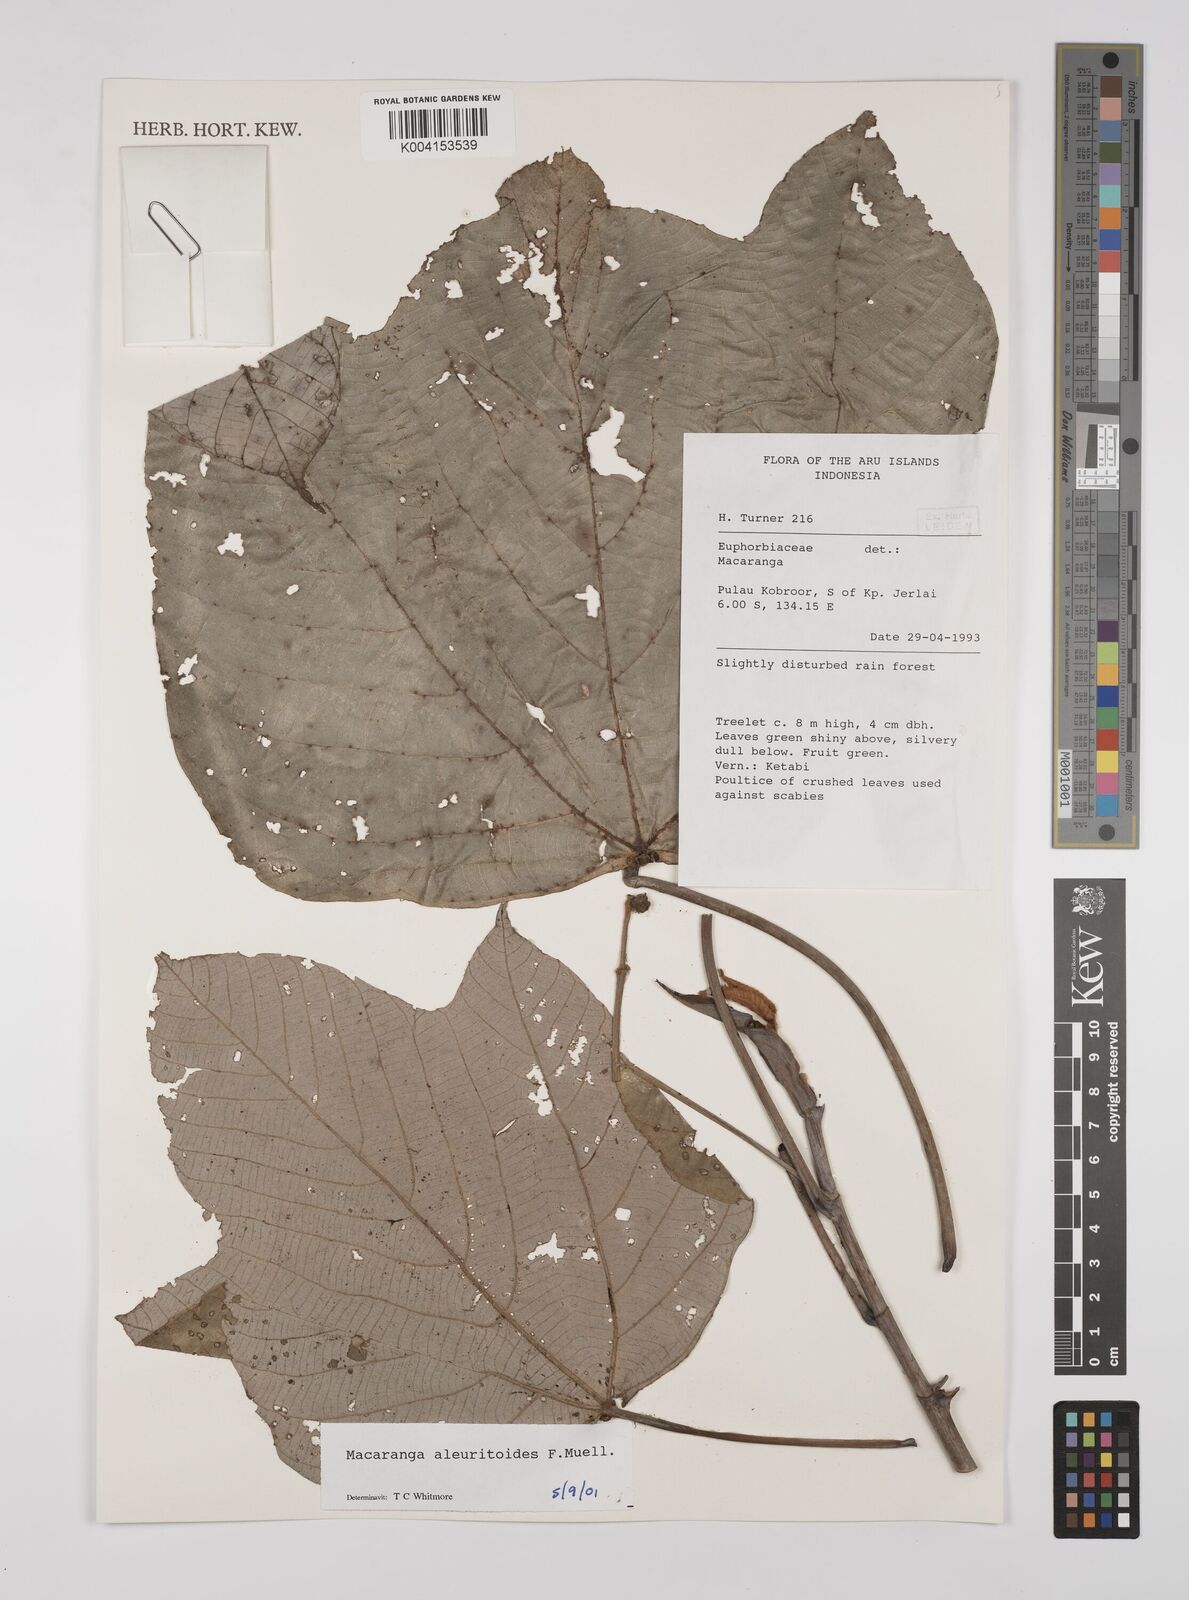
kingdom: Plantae
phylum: Tracheophyta
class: Magnoliopsida
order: Malpighiales
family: Euphorbiaceae
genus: Macaranga
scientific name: Macaranga aleuritoides
